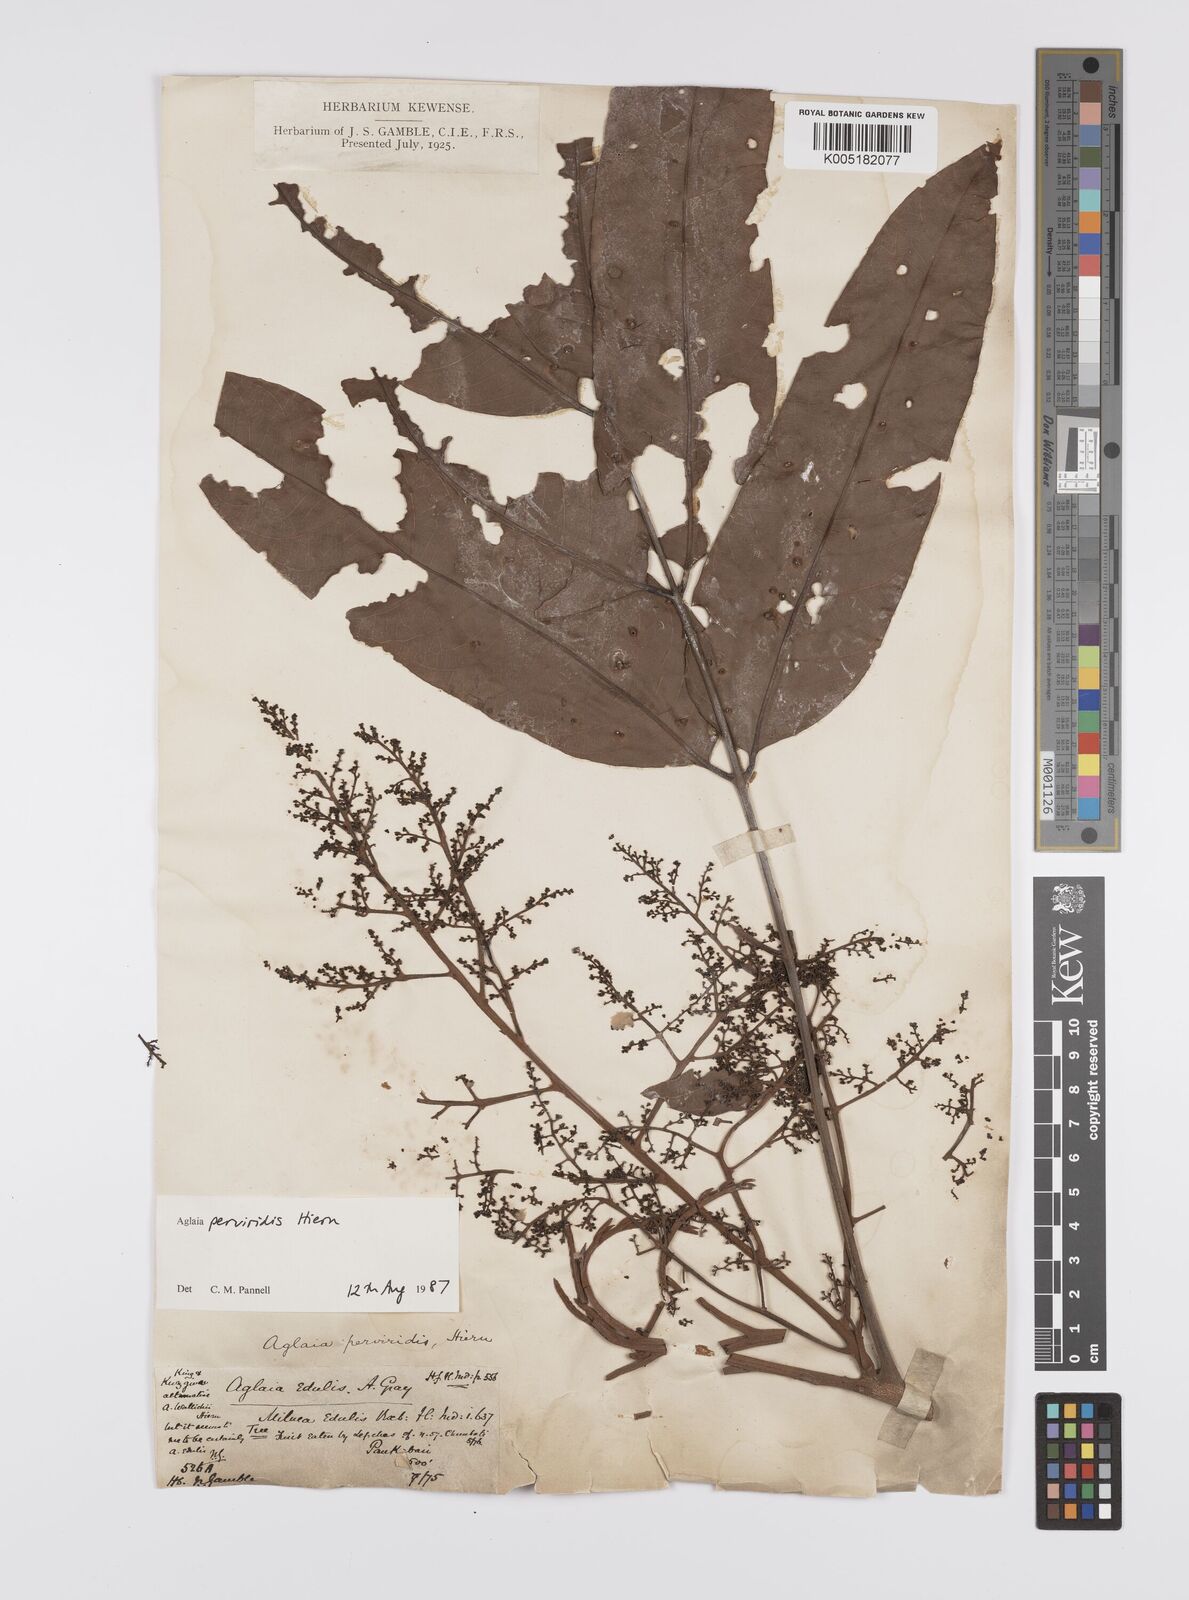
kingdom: Plantae
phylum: Tracheophyta
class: Magnoliopsida
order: Sapindales
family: Meliaceae
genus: Aglaia
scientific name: Aglaia perviridis
